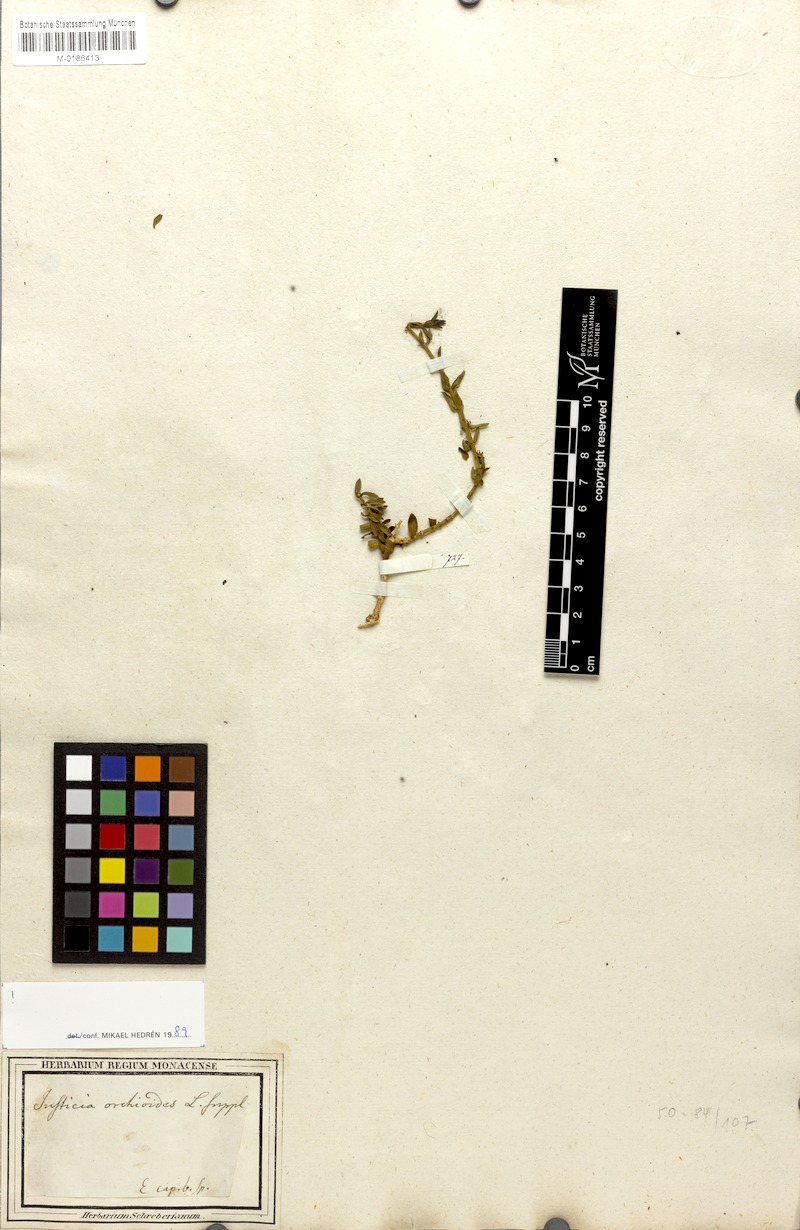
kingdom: Plantae
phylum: Tracheophyta
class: Magnoliopsida
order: Lamiales
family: Acanthaceae
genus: Justicia
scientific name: Justicia orchioides
